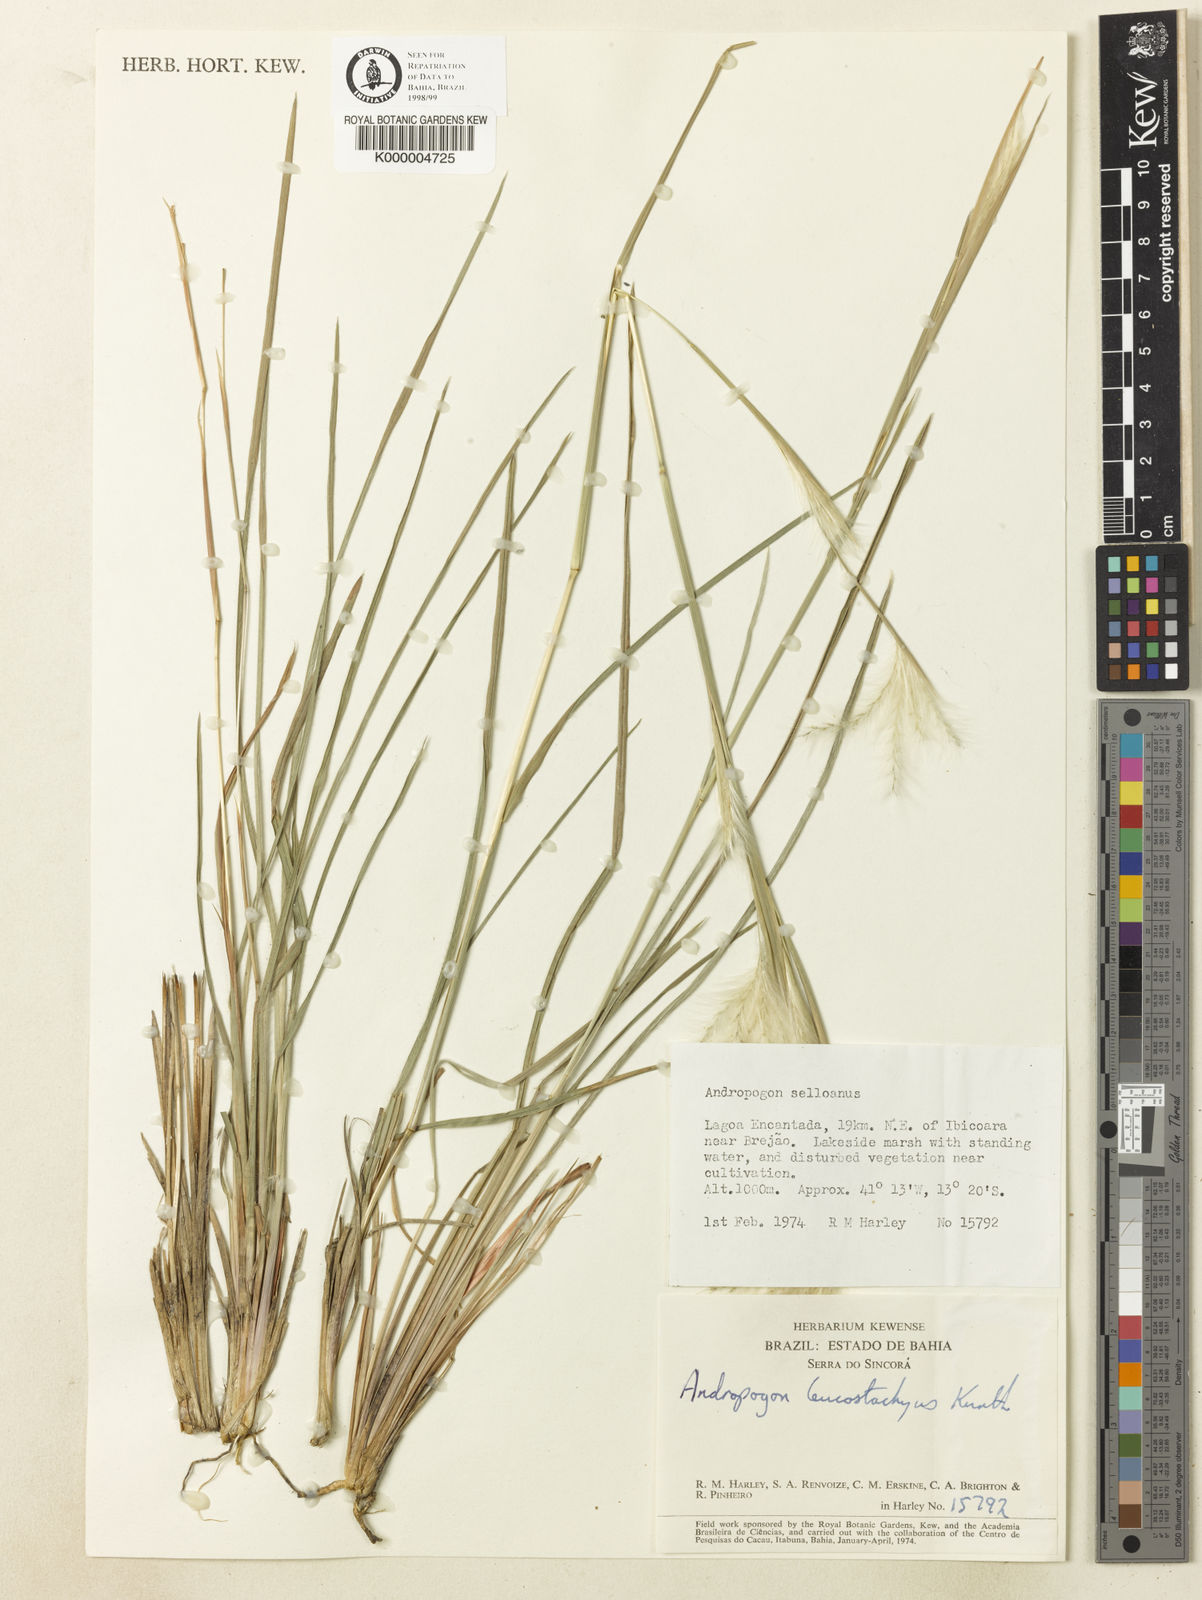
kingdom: Plantae
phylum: Tracheophyta
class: Liliopsida
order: Poales
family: Poaceae
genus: Andropogon
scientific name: Andropogon leucostachyus
